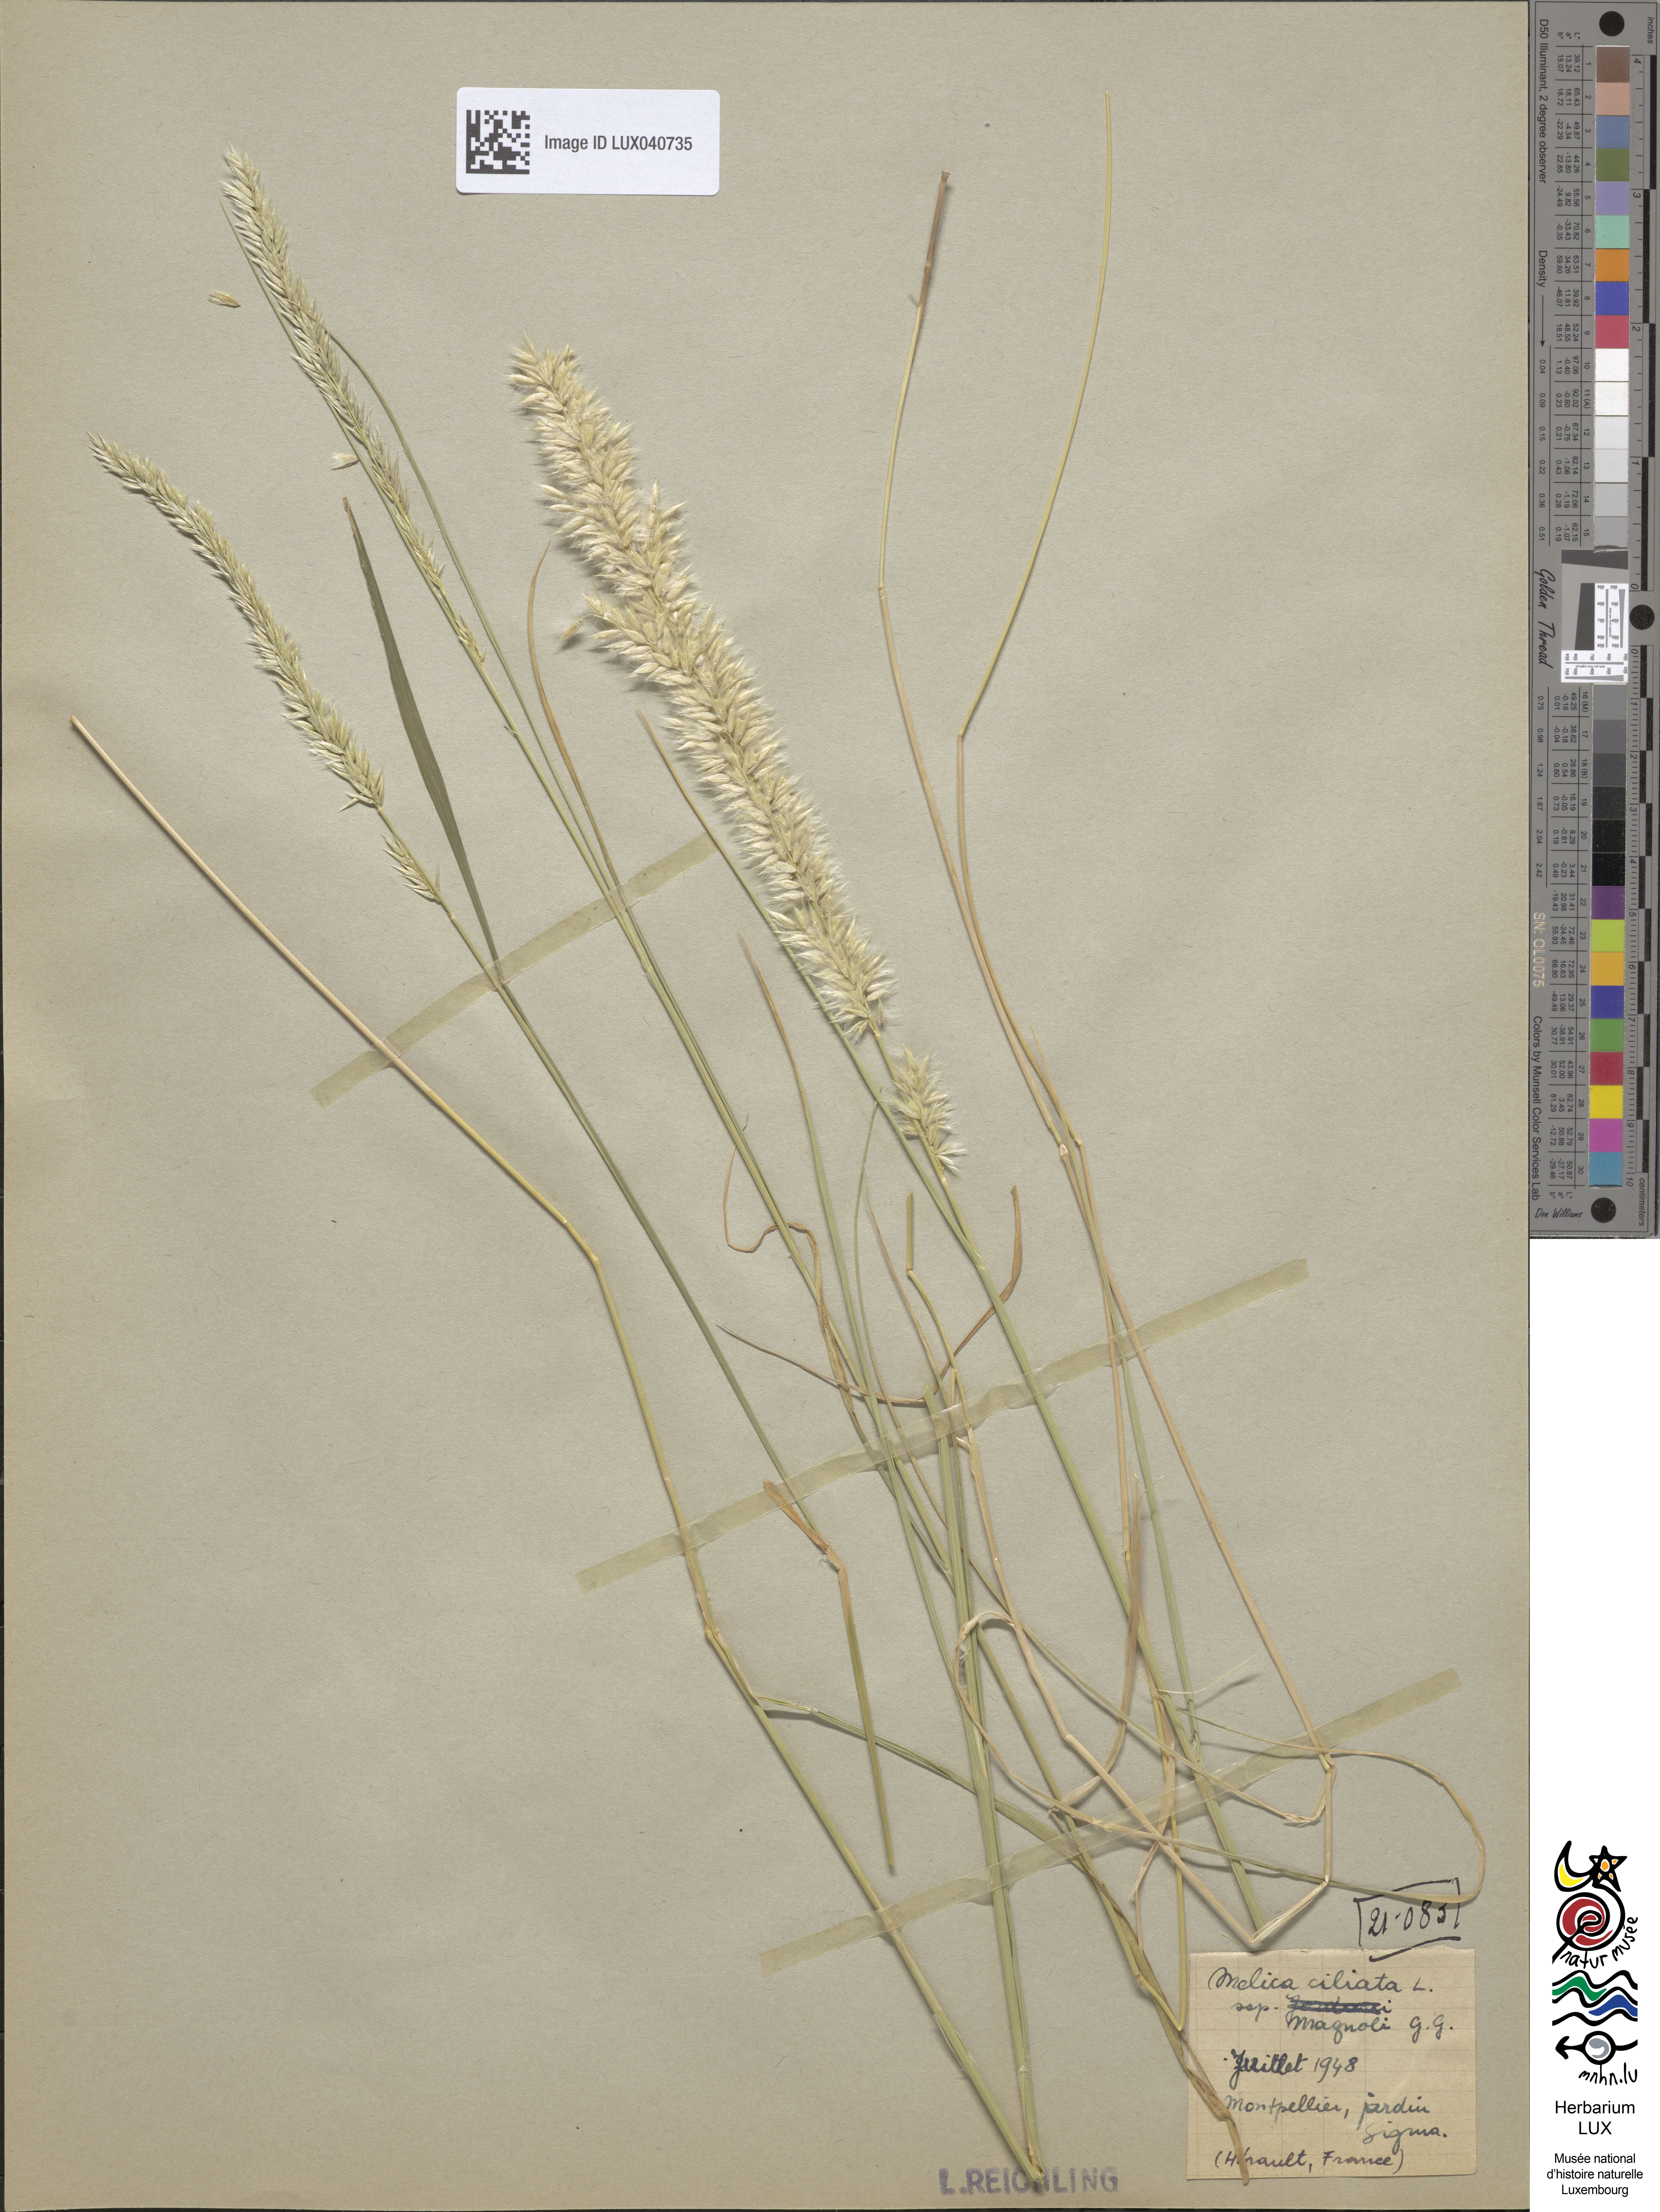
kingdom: Plantae
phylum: Tracheophyta
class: Liliopsida
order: Poales
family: Poaceae
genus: Melica
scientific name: Melica ciliata
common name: Hairy melicgrass
